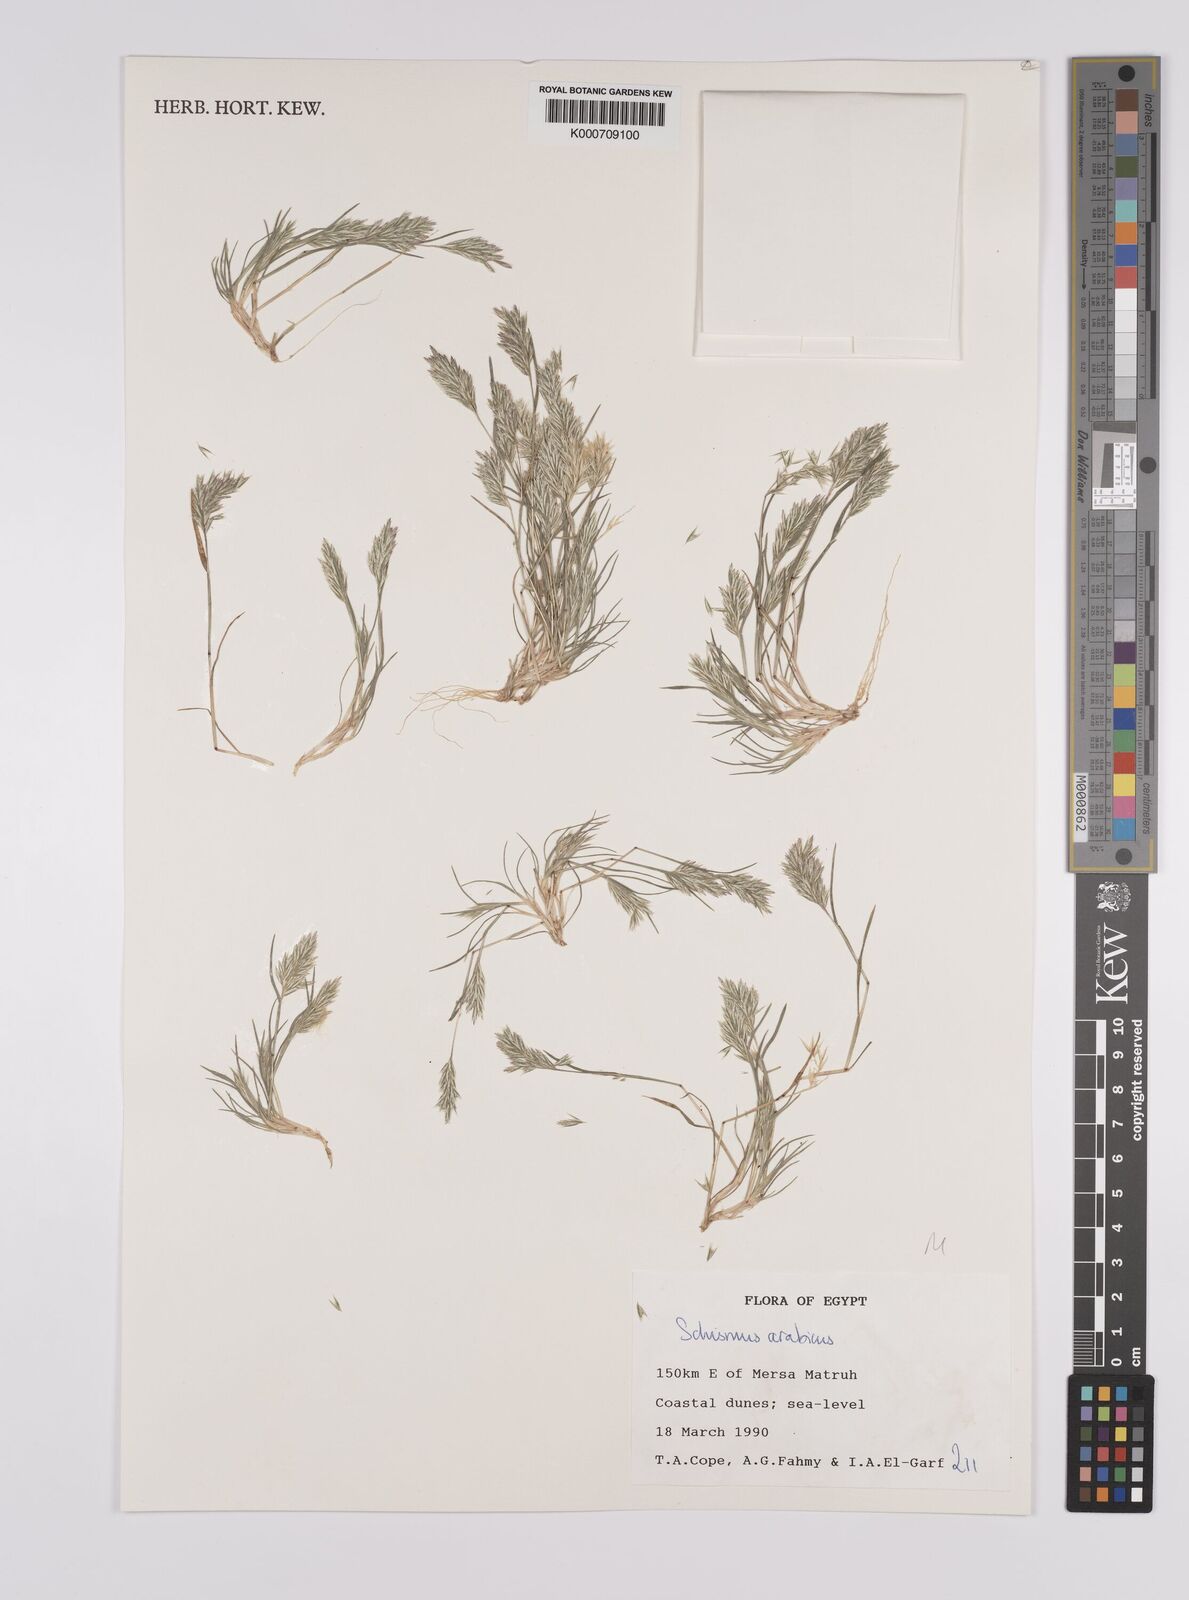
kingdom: Plantae
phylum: Tracheophyta
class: Liliopsida
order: Poales
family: Poaceae
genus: Schismus
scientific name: Schismus arabicus
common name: Arabian schismus
